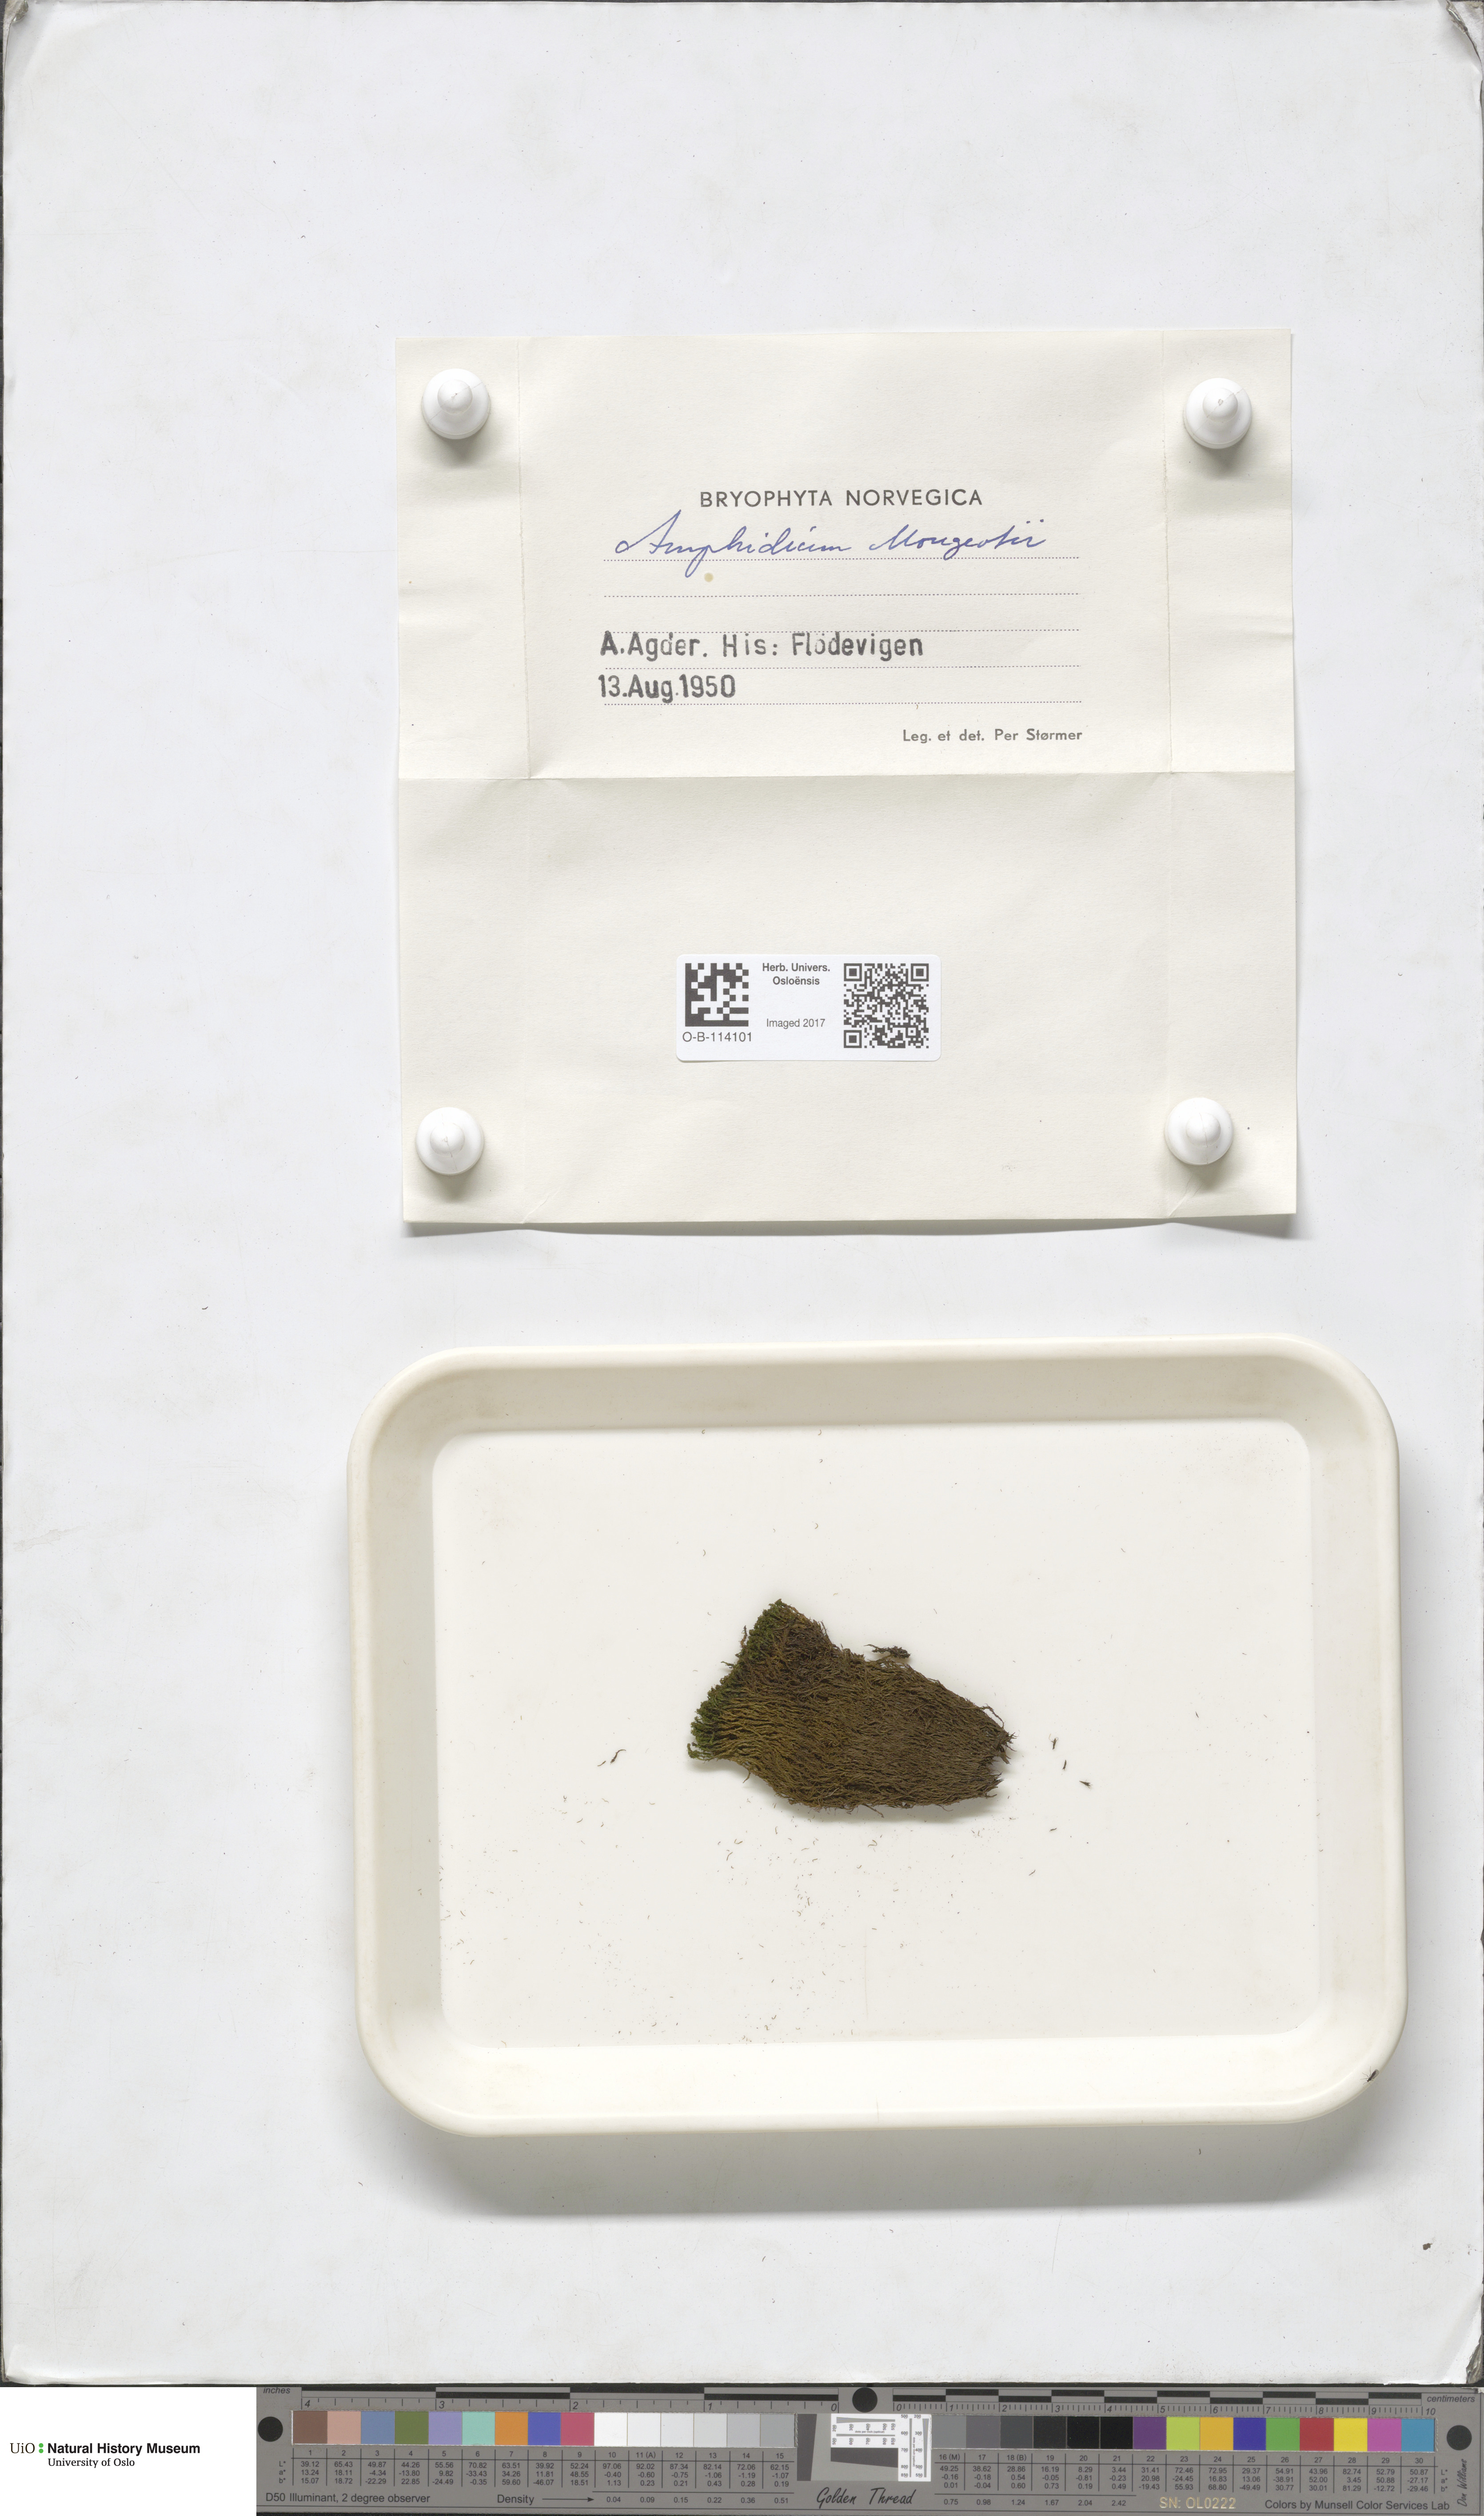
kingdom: Plantae
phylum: Bryophyta
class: Bryopsida
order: Dicranales
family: Amphidiaceae
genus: Amphidium
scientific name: Amphidium mougeotii
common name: Mougeot's yoke moss
